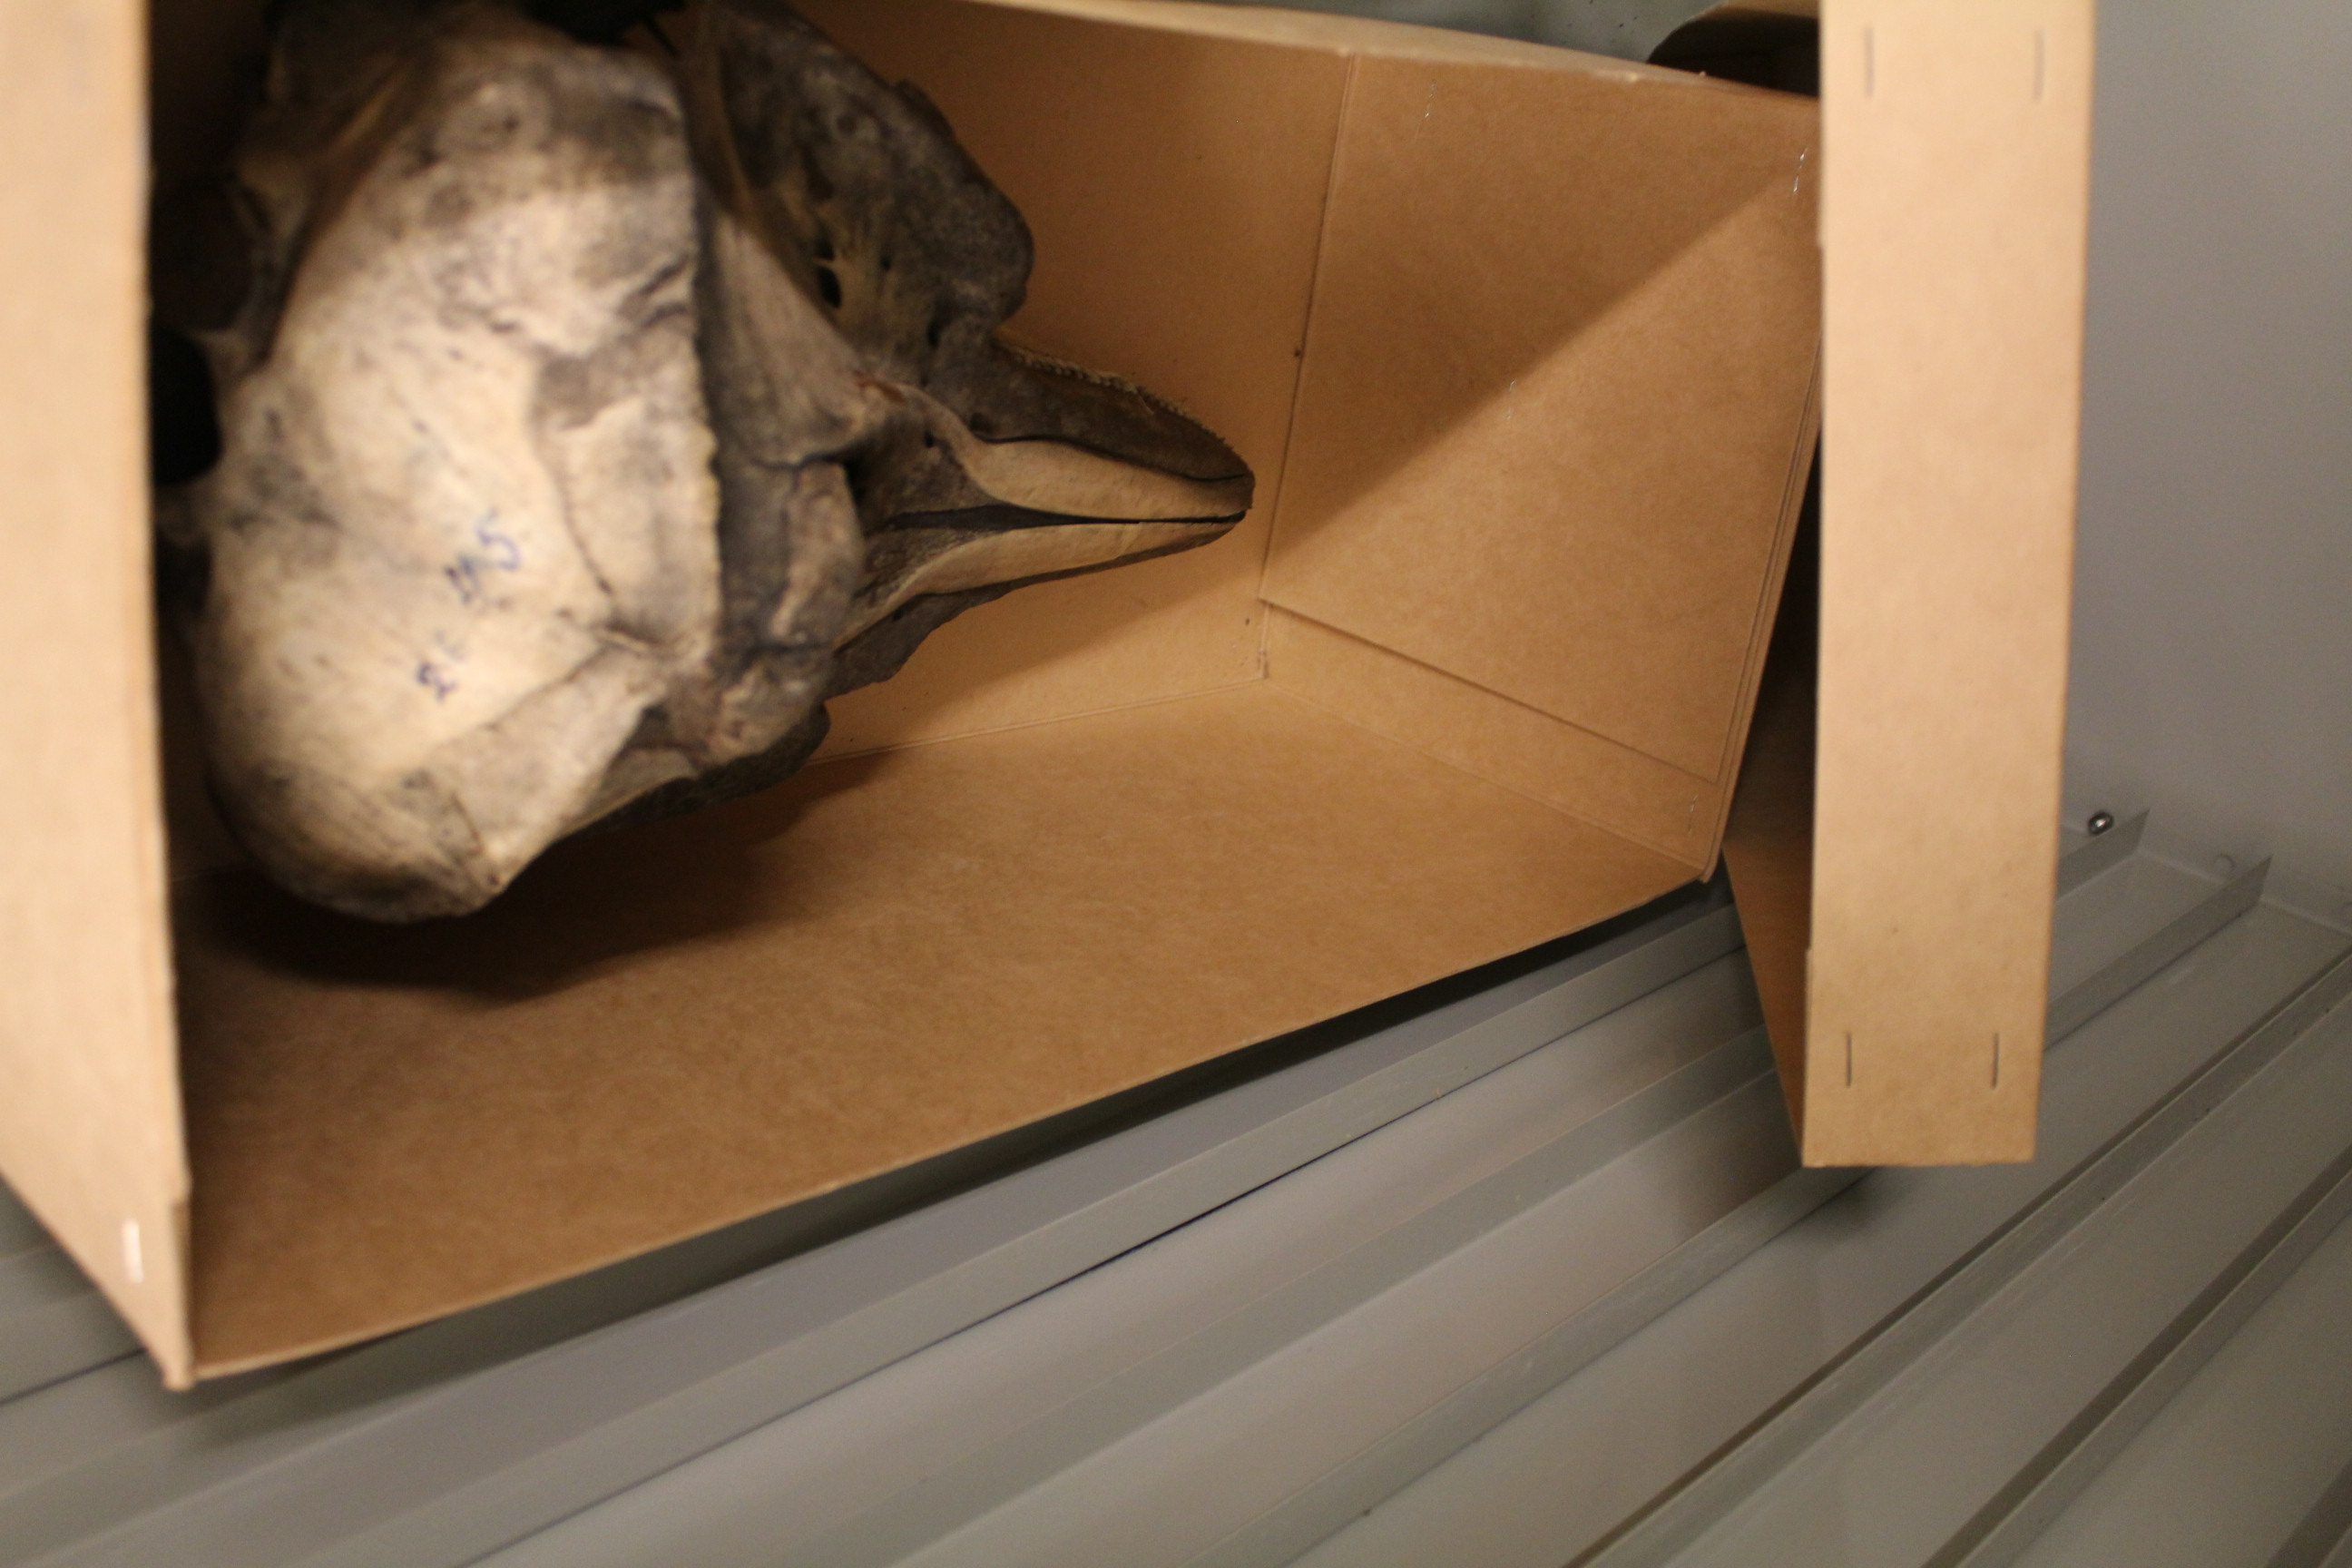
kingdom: Animalia
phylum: Chordata
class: Mammalia
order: Cetacea
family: Delphinidae
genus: Lagenorhynchus
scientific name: Lagenorhynchus acutus
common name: Atlantic white-sided dolphin
